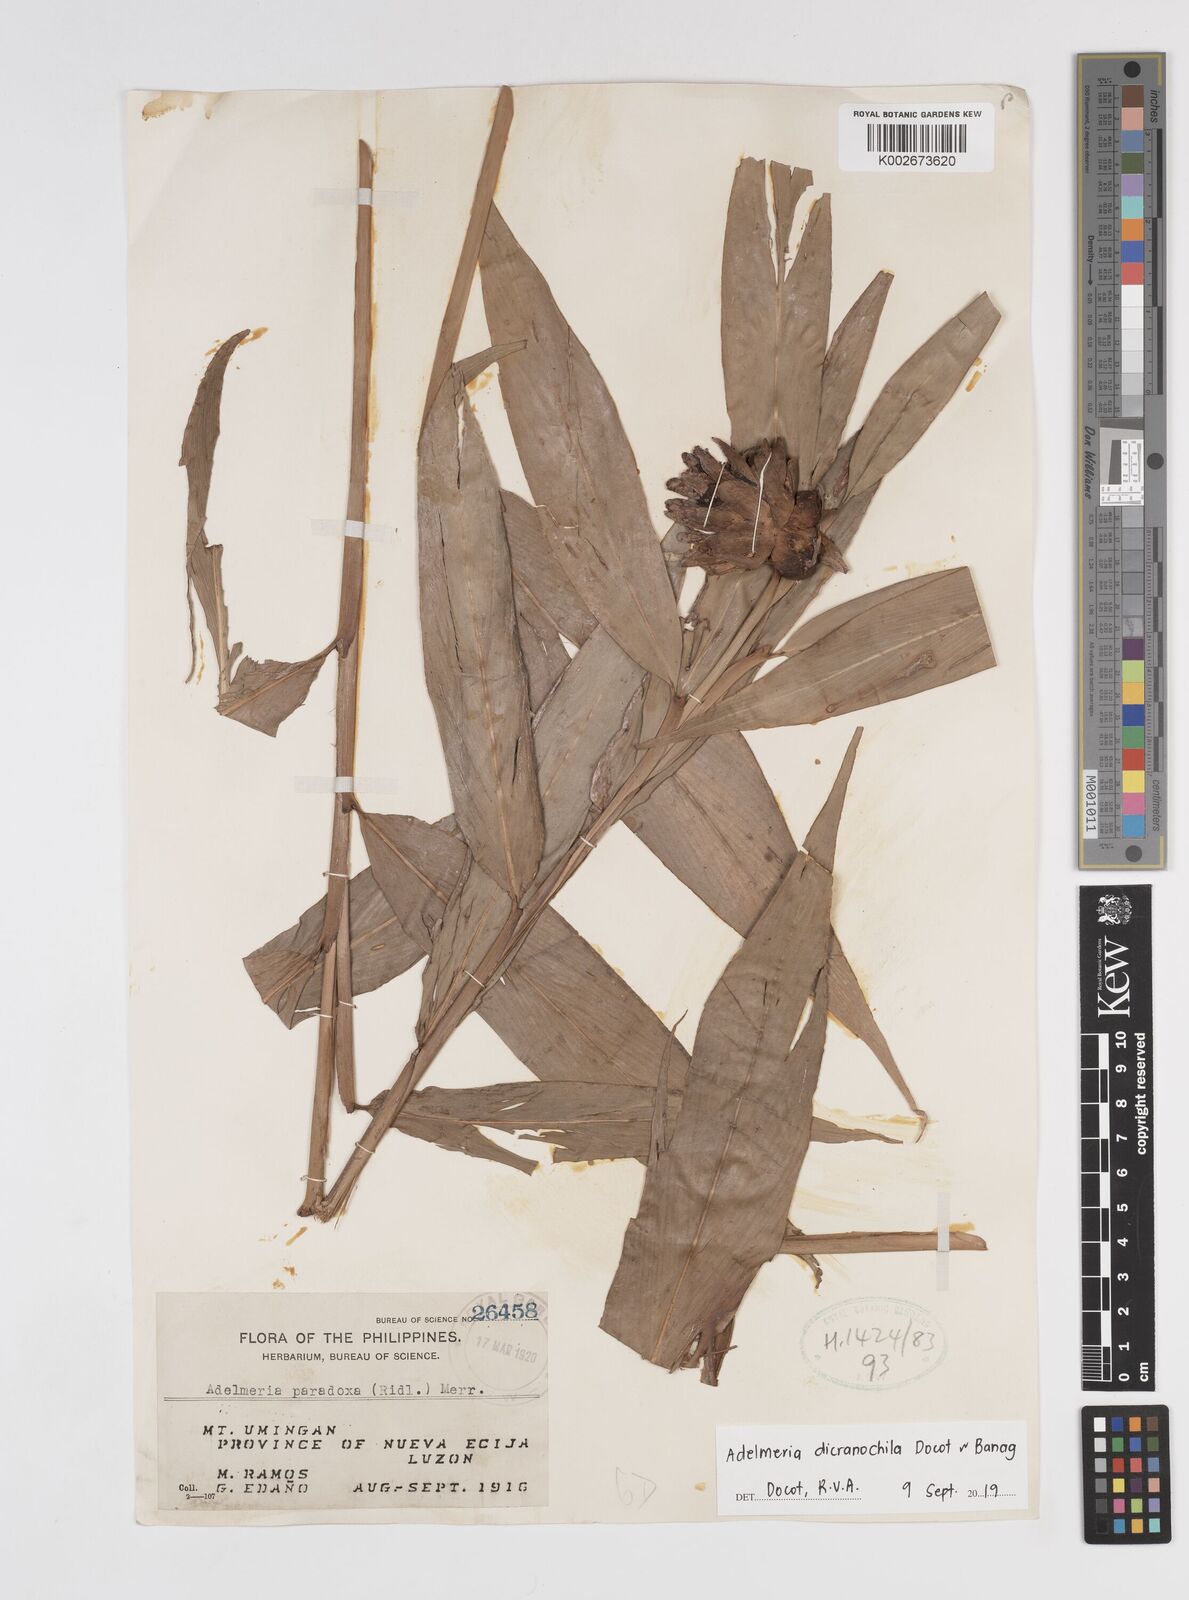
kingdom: Plantae
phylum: Tracheophyta
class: Liliopsida
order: Zingiberales
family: Zingiberaceae
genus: Adelmeria
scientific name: Adelmeria dicranochila
